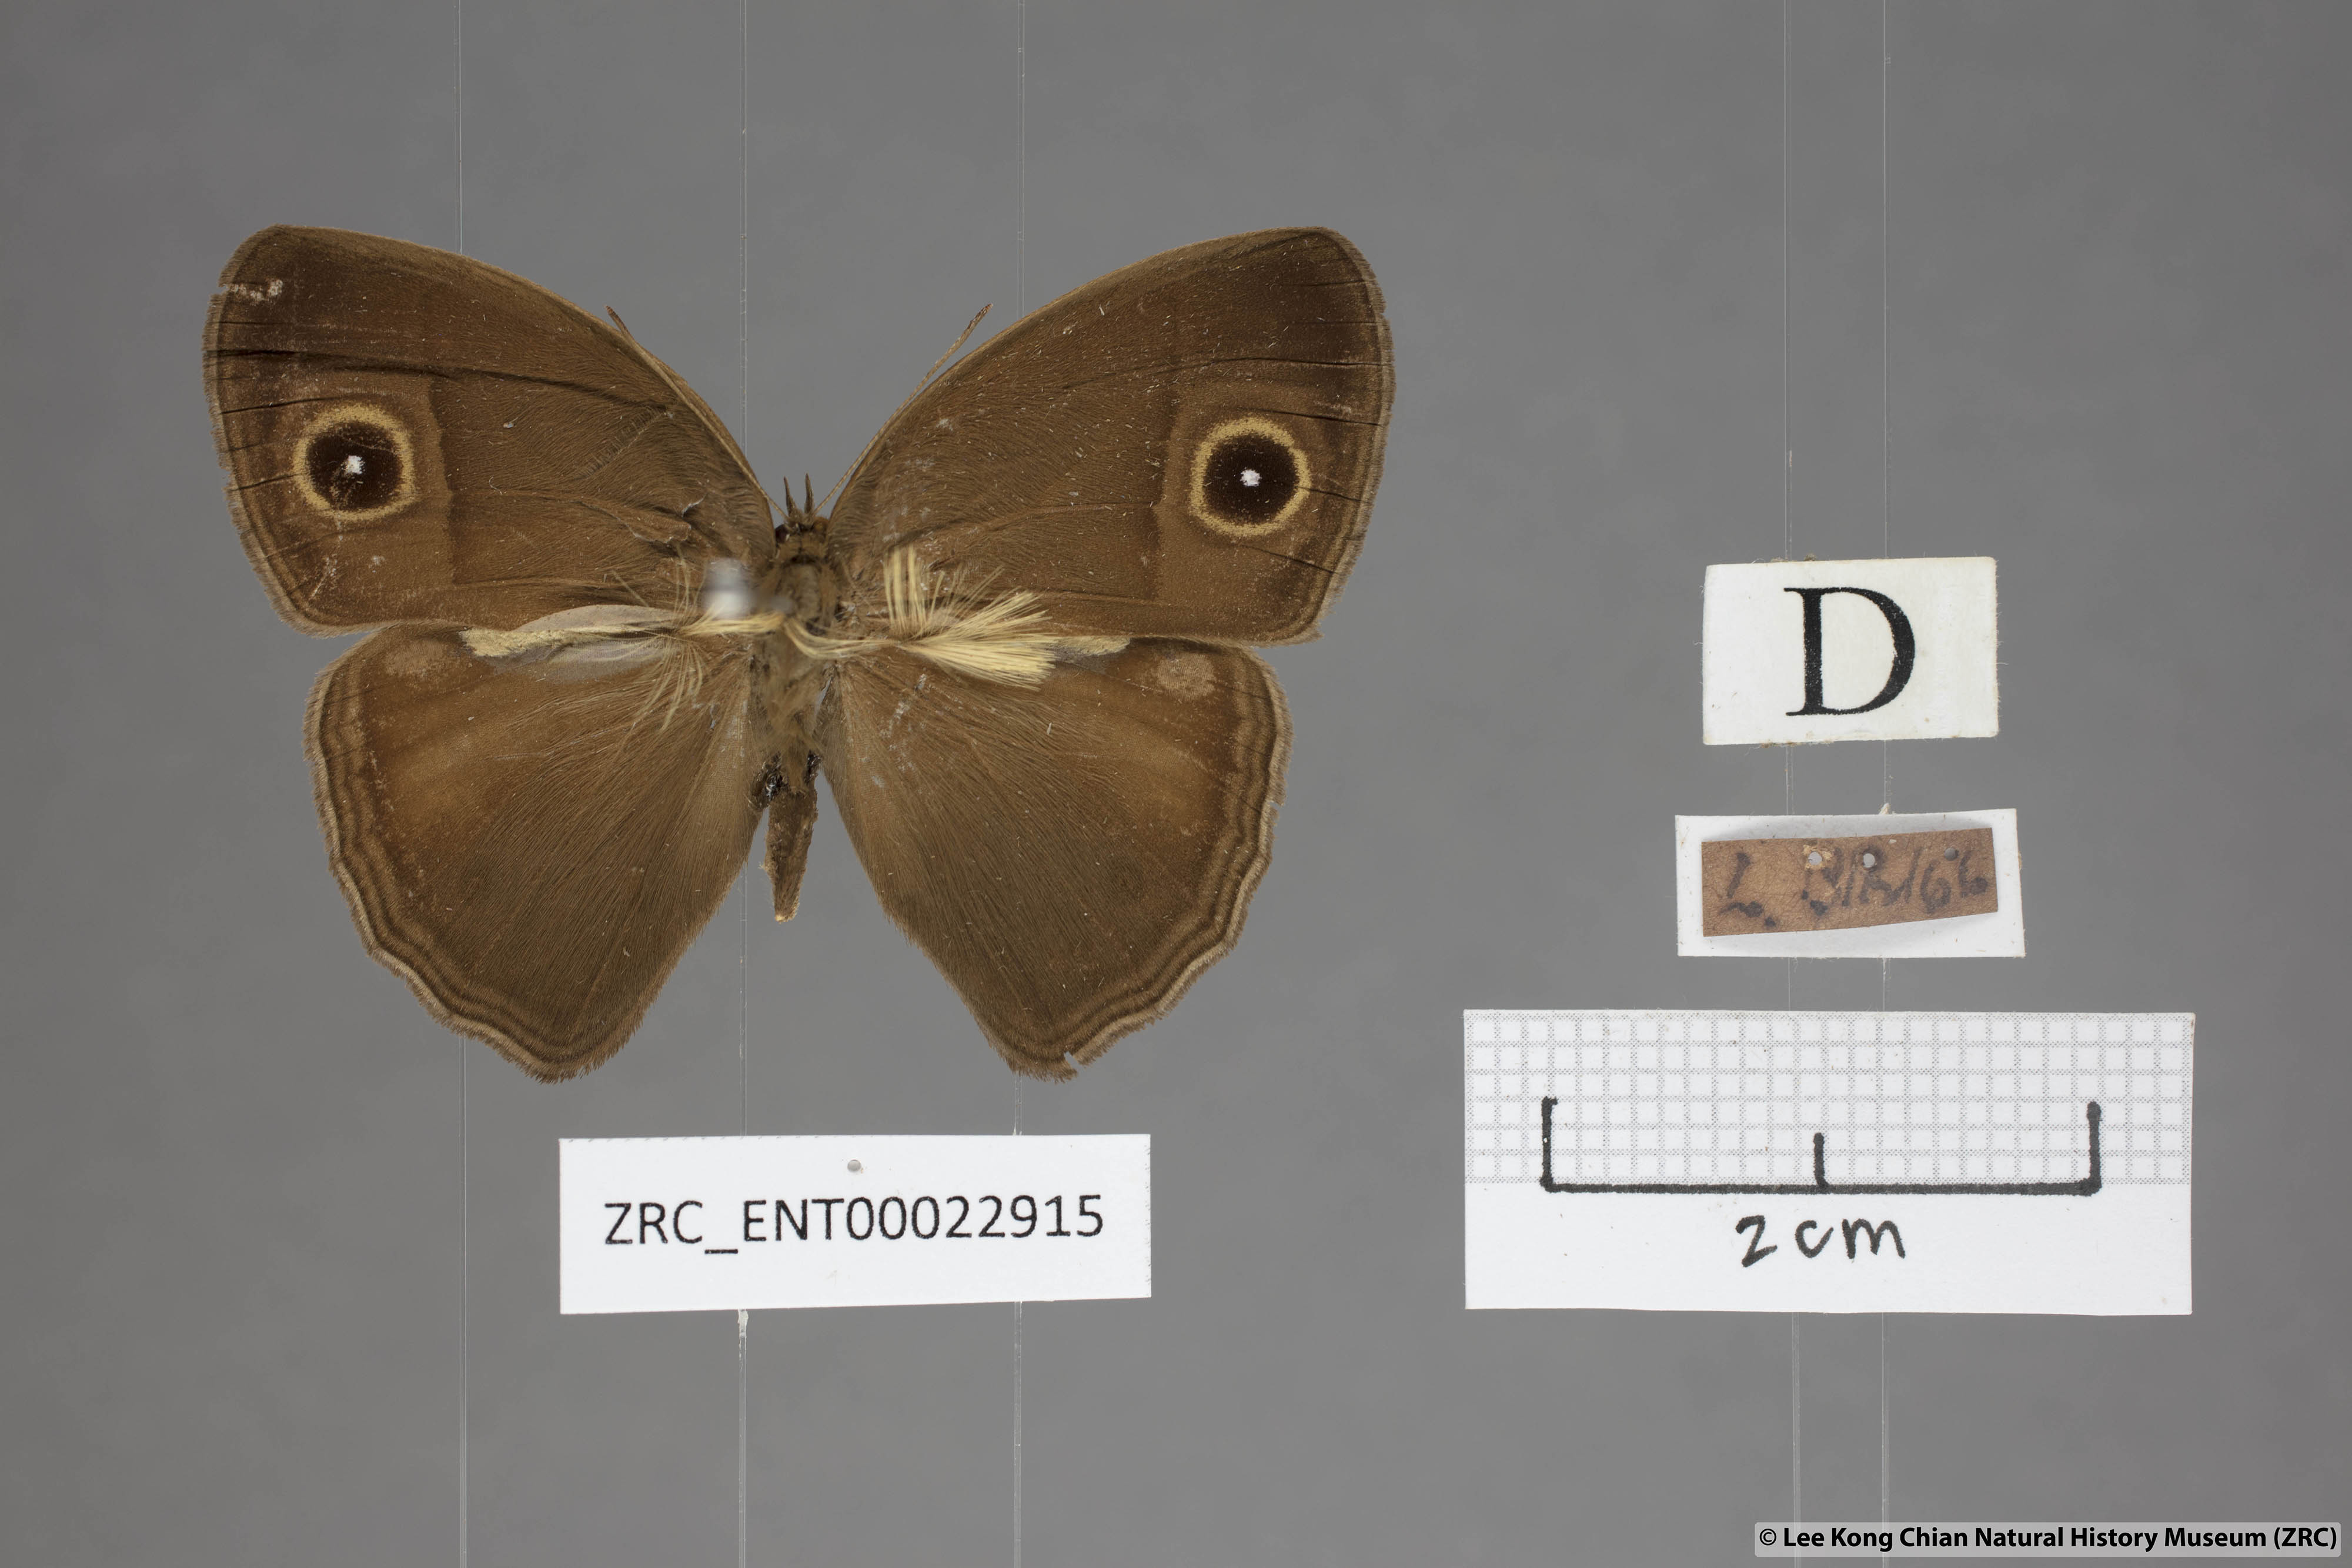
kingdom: Animalia
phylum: Arthropoda
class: Insecta
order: Lepidoptera
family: Nymphalidae
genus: Mycalesis
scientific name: Mycalesis horsfieldii
